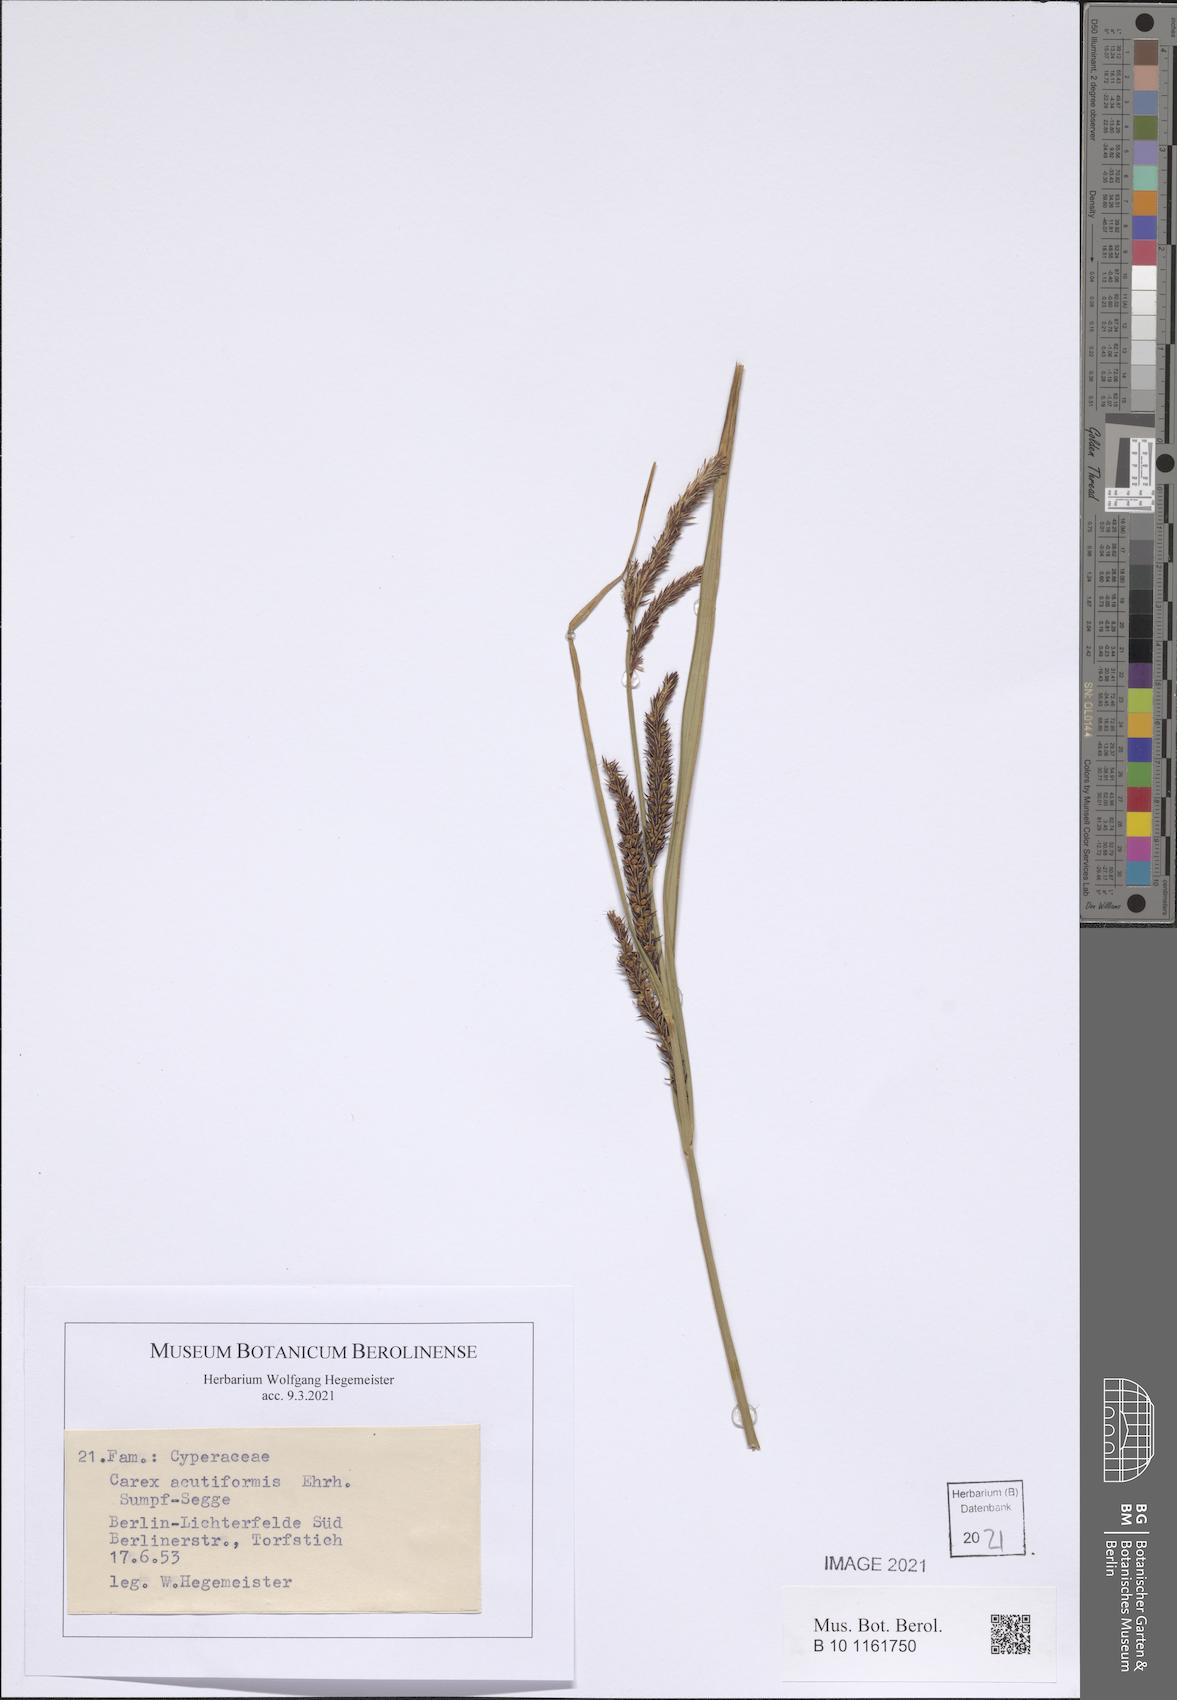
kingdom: Plantae
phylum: Tracheophyta
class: Liliopsida
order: Poales
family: Cyperaceae
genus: Carex
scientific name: Carex acutiformis
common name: Lesser pond-sedge
